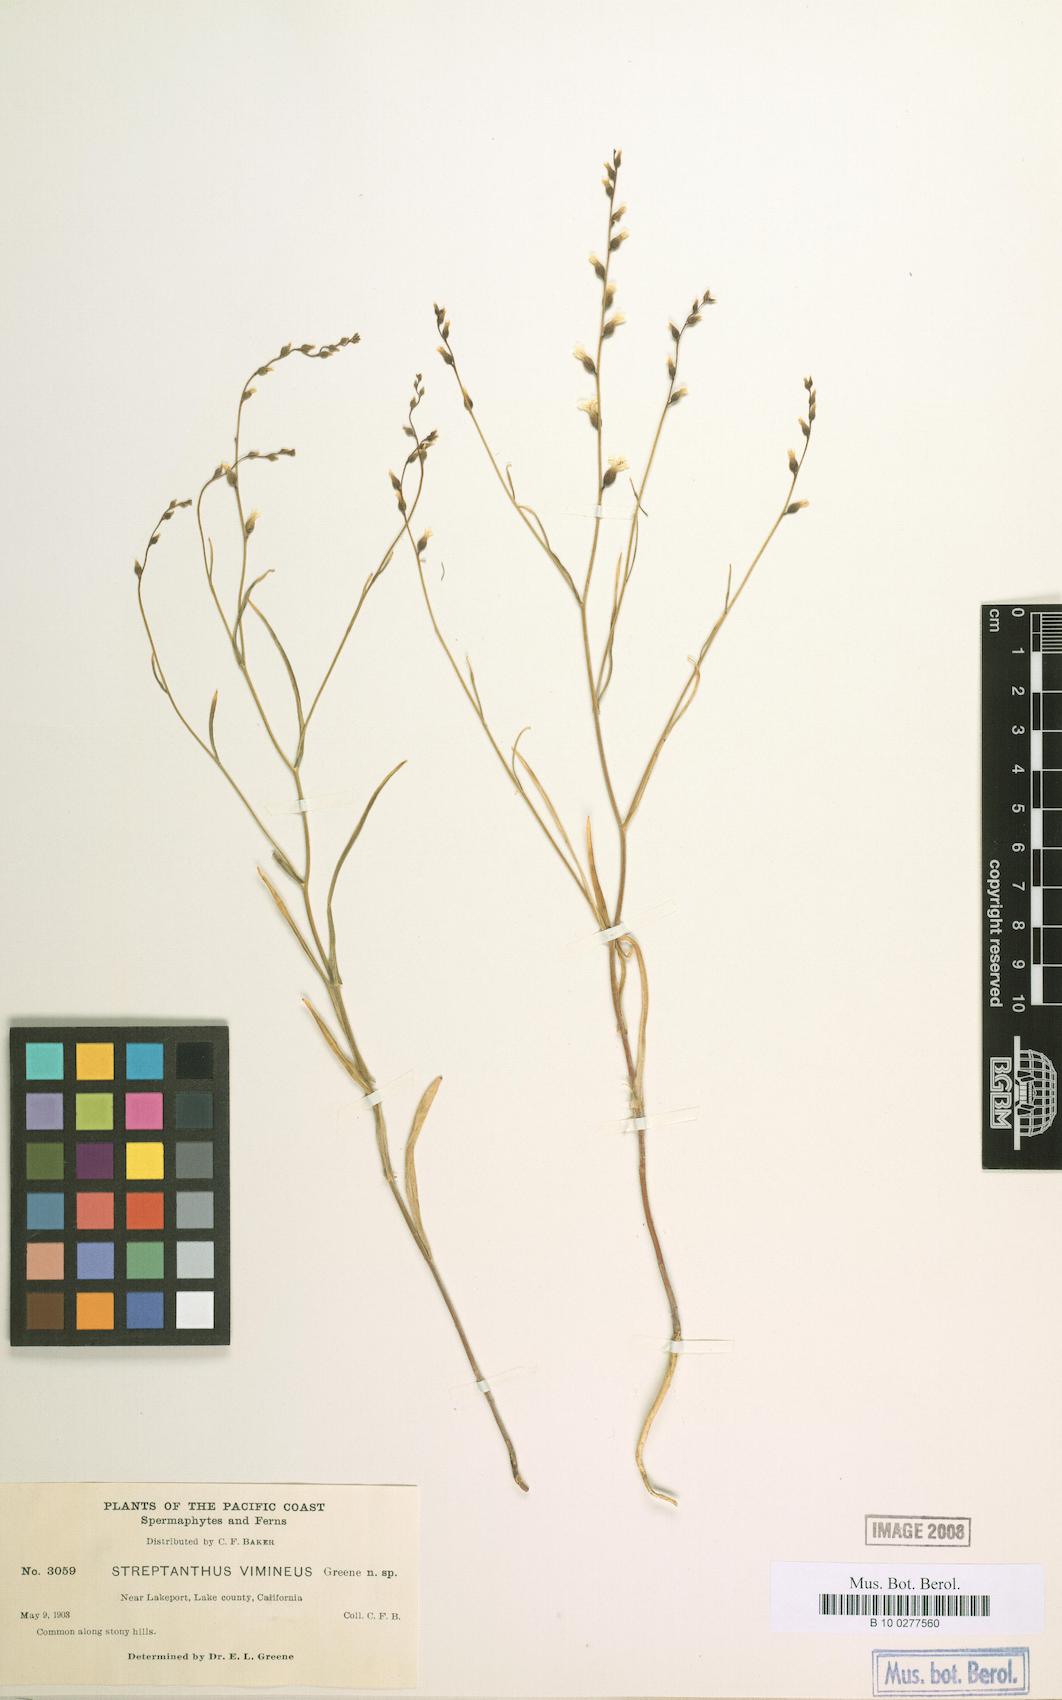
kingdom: Plantae
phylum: Tracheophyta
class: Magnoliopsida
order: Brassicales
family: Brassicaceae
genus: Streptanthus
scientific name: Streptanthus vimineus
